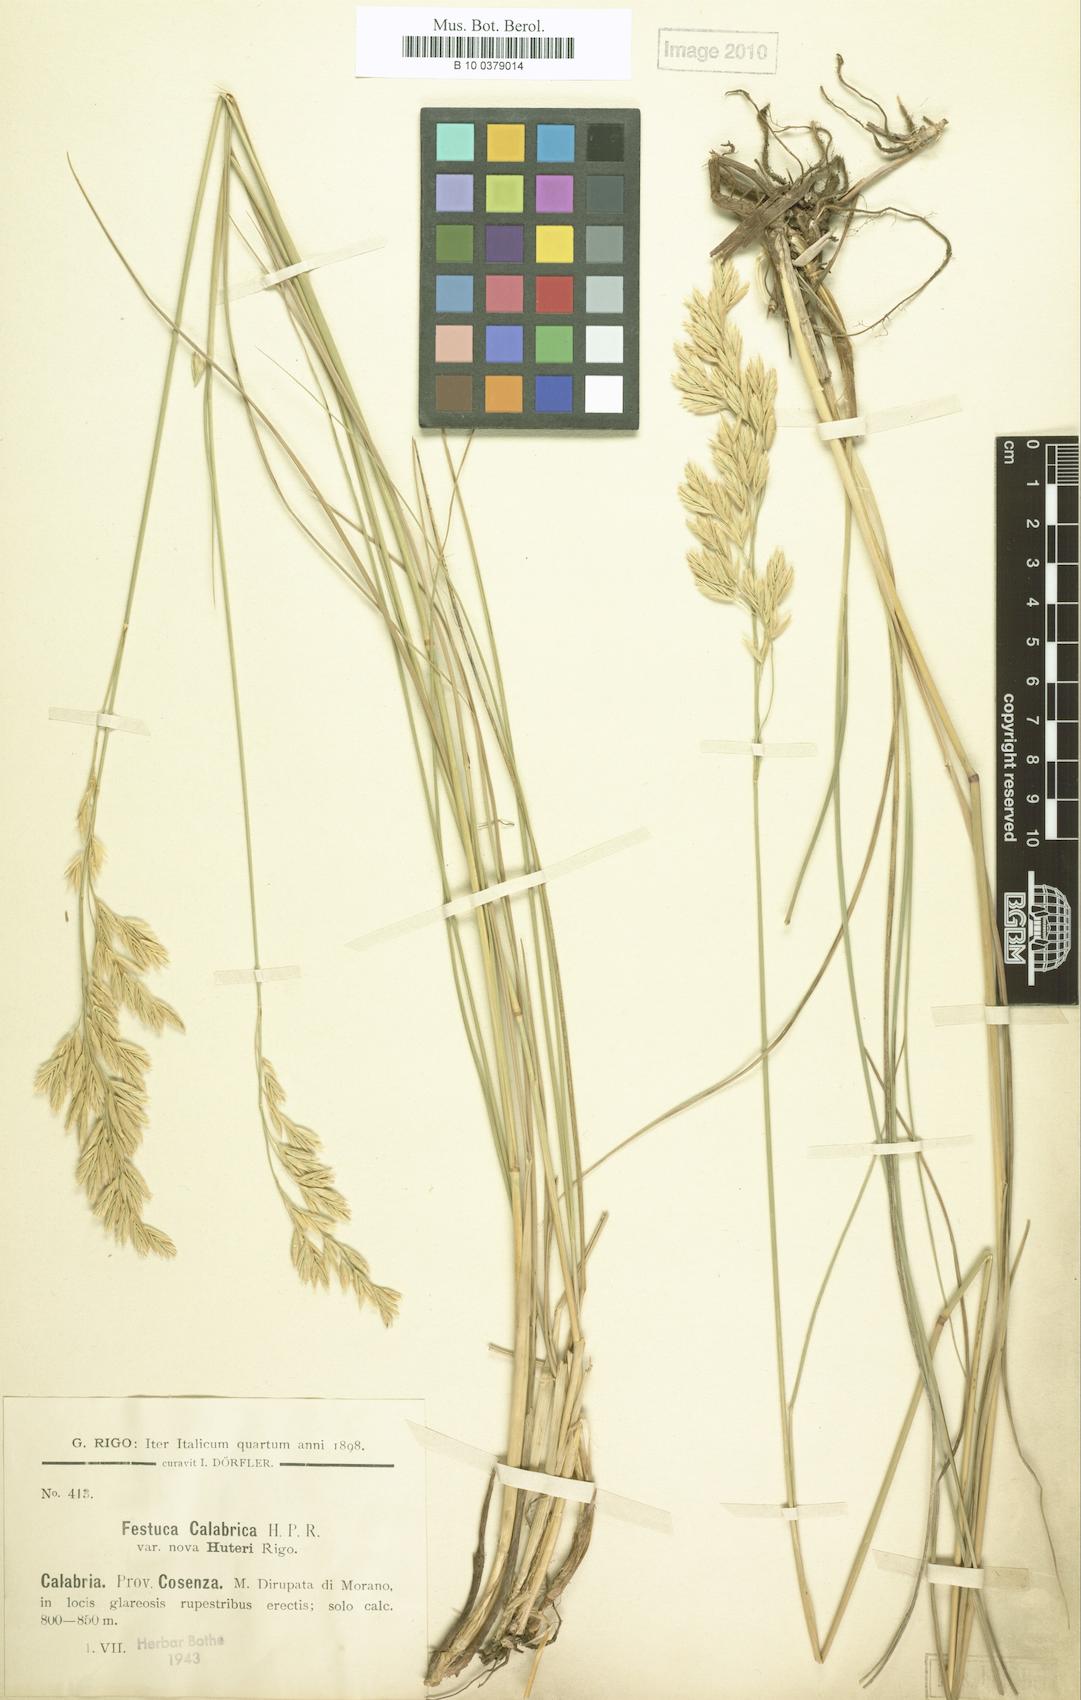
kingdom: Plantae
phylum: Tracheophyta
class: Liliopsida
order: Poales
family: Poaceae
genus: Festuca
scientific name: Festuca calabrica
